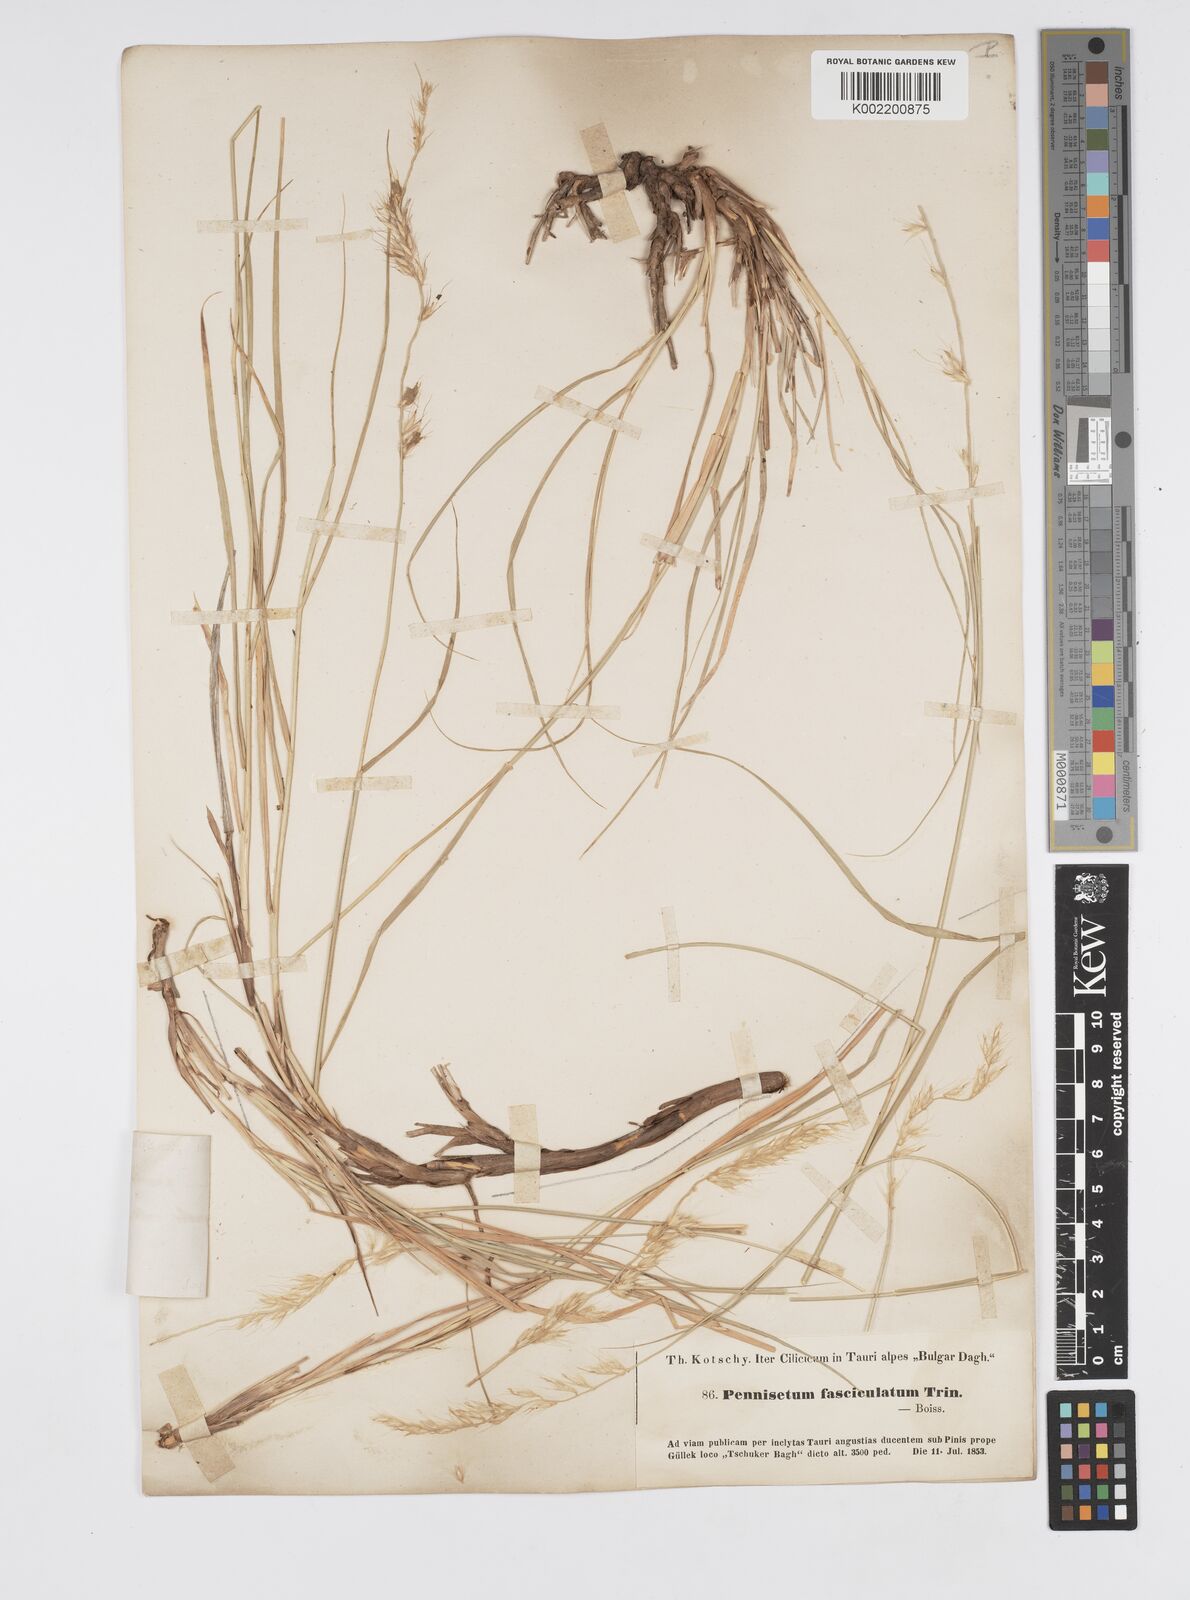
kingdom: Plantae
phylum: Tracheophyta
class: Liliopsida
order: Poales
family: Poaceae
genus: Cenchrus
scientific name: Cenchrus orientalis
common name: Oriental fountain grass
